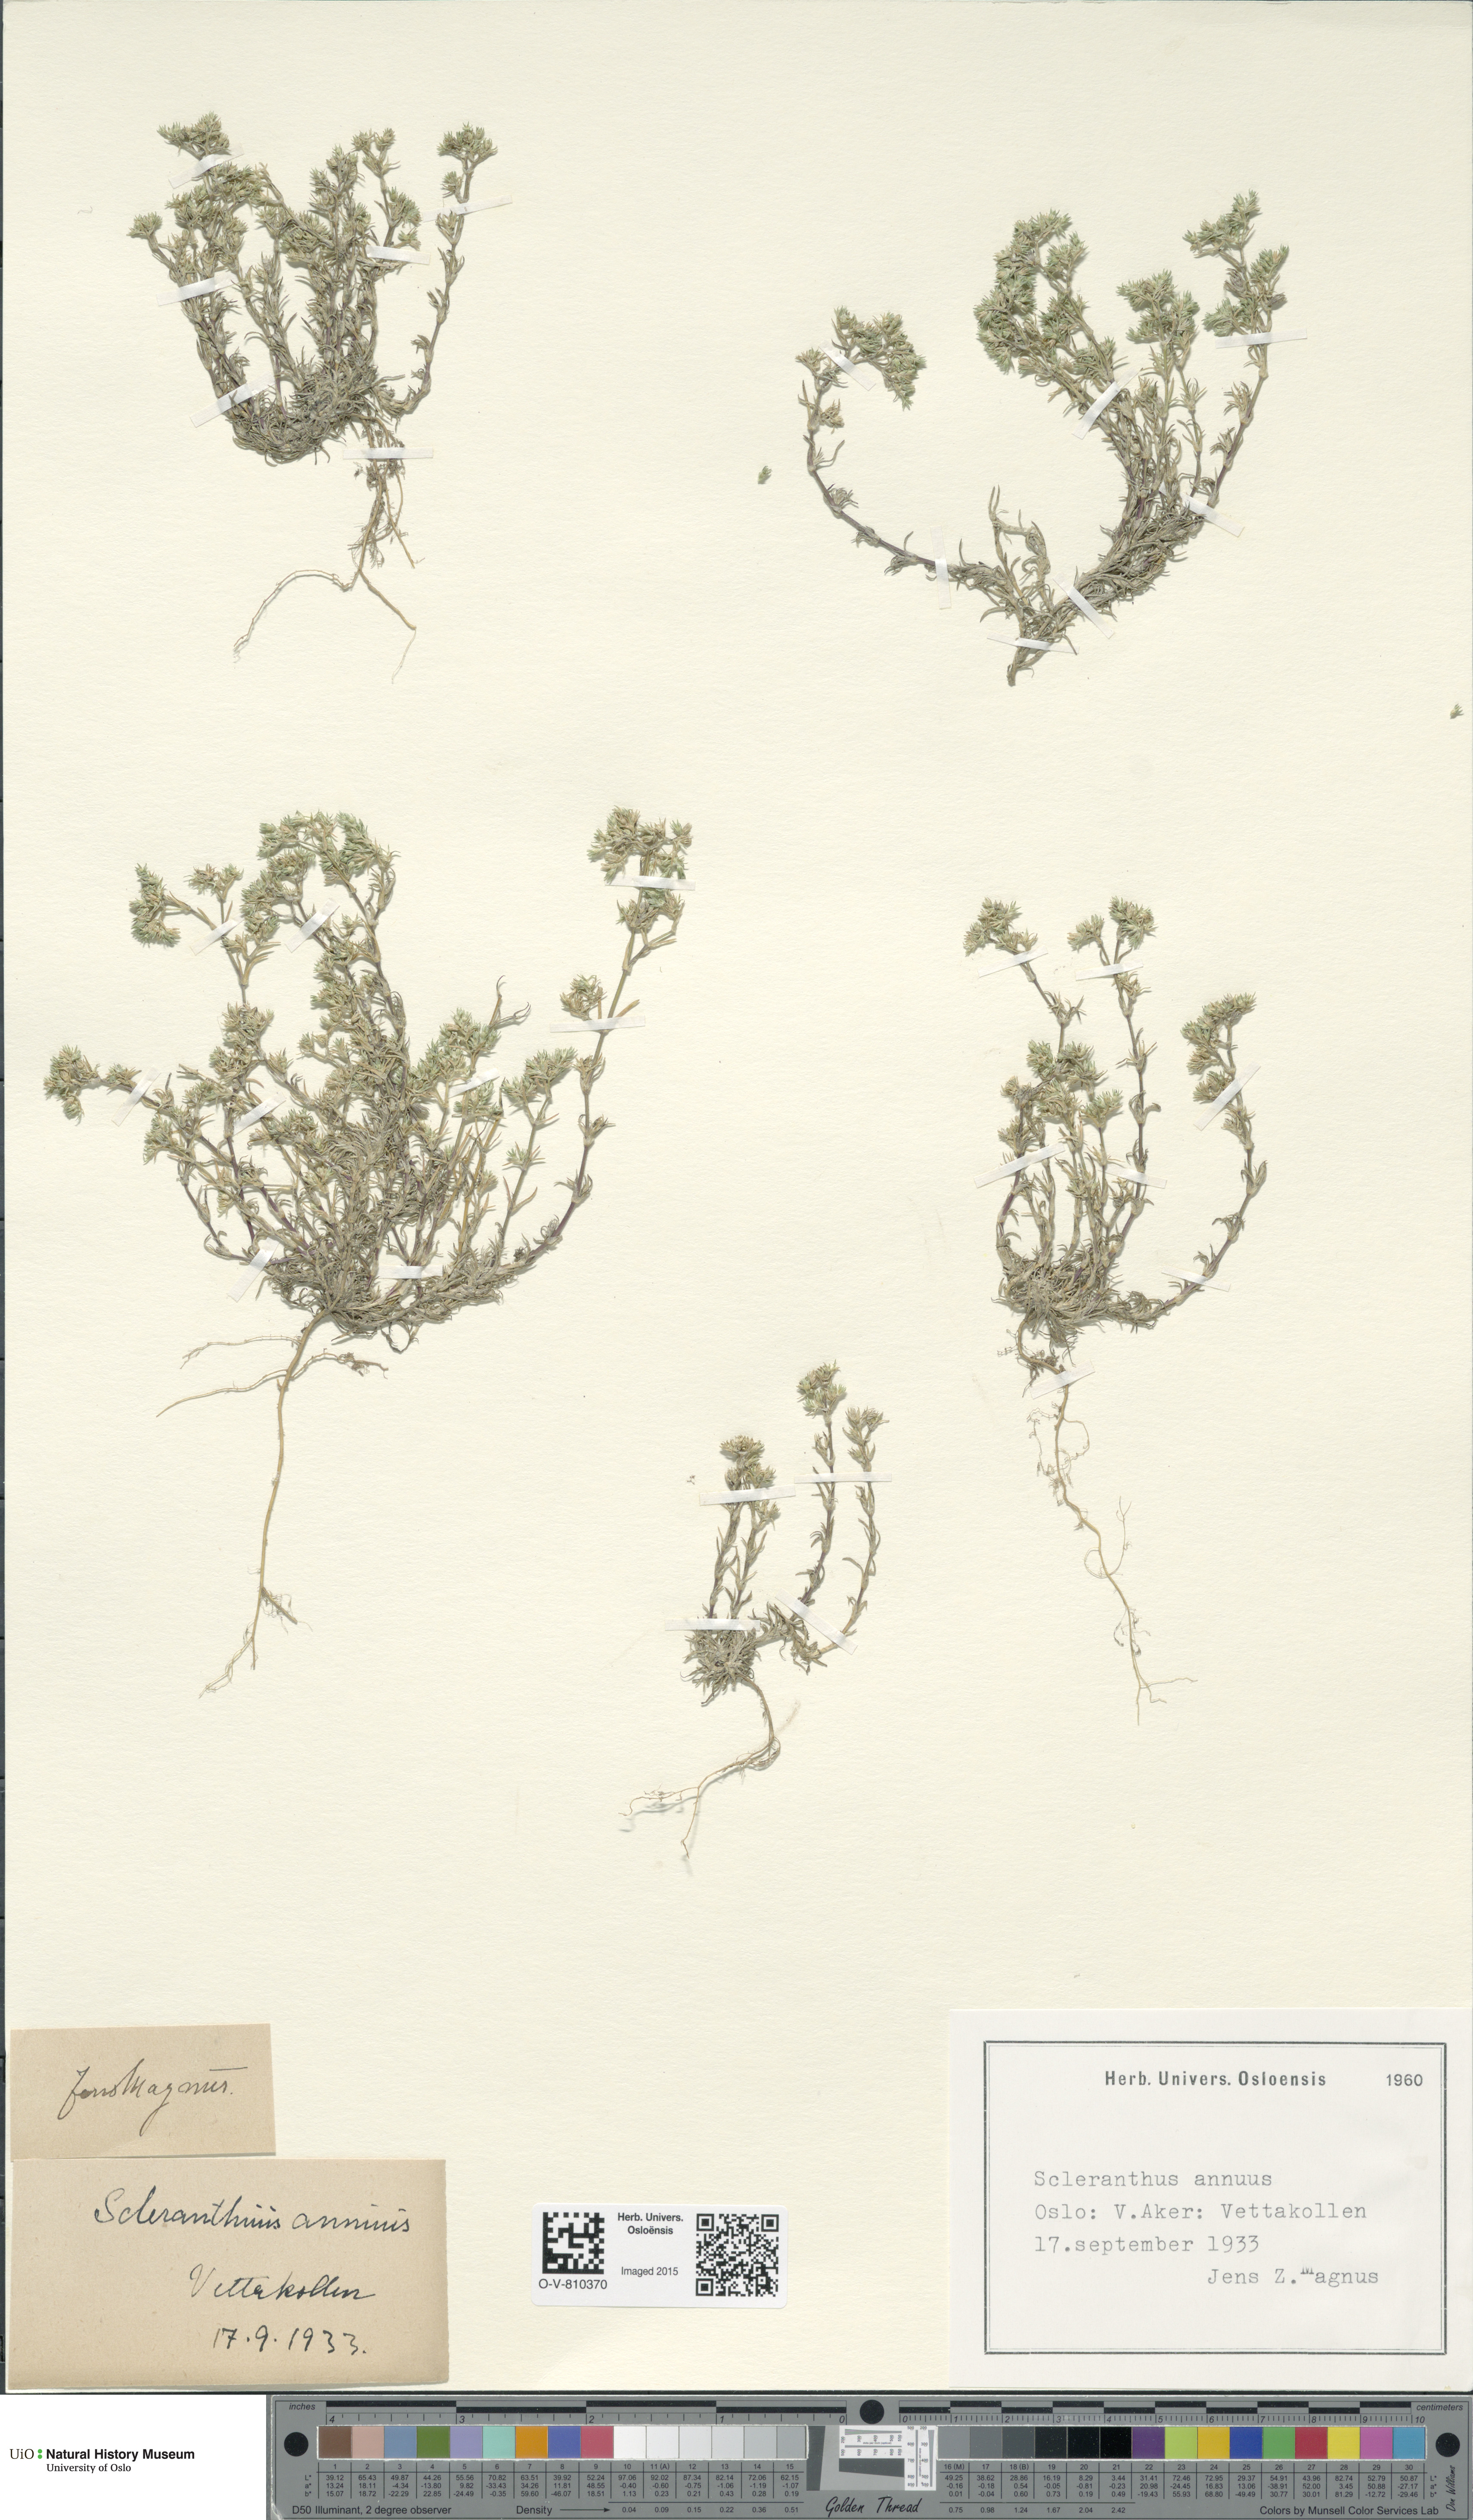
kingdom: Plantae
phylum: Tracheophyta
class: Magnoliopsida
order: Caryophyllales
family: Caryophyllaceae
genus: Scleranthus
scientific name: Scleranthus annuus
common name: Annual knawel
